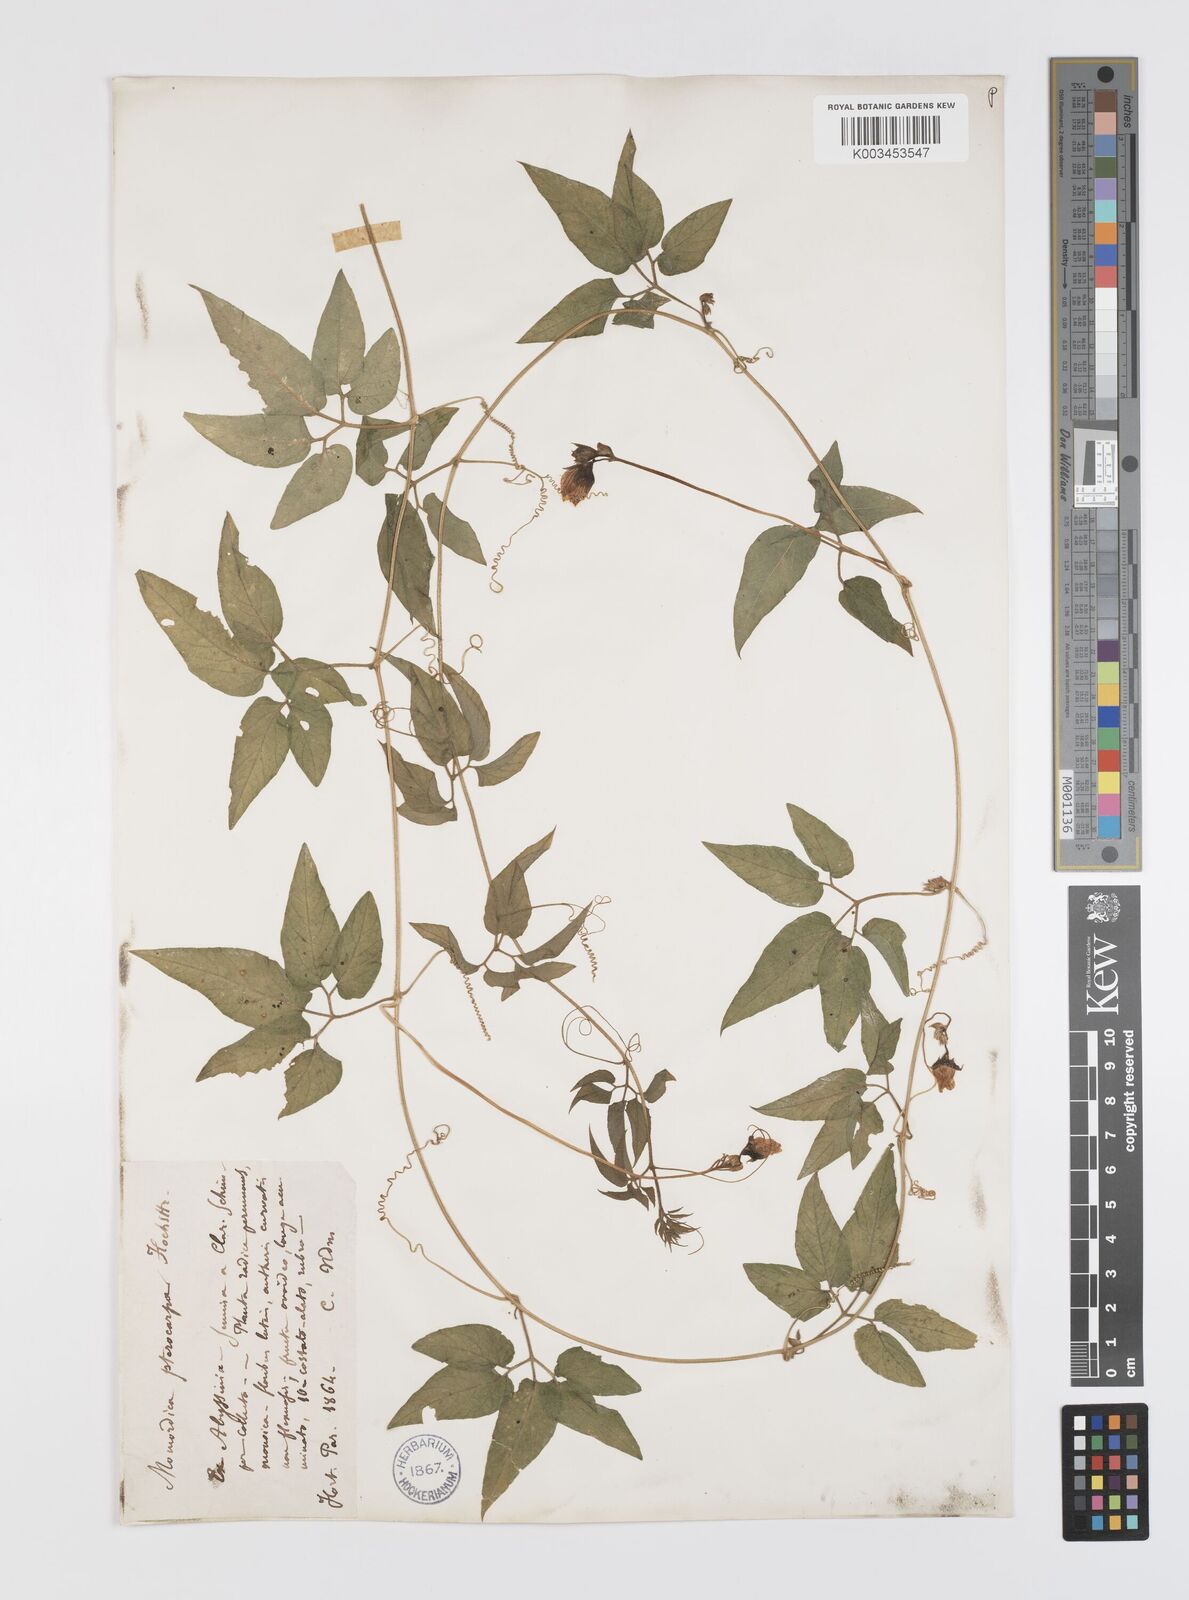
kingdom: Plantae
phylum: Tracheophyta
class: Magnoliopsida
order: Cucurbitales
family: Cucurbitaceae
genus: Momordica
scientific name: Momordica pterocarpa
